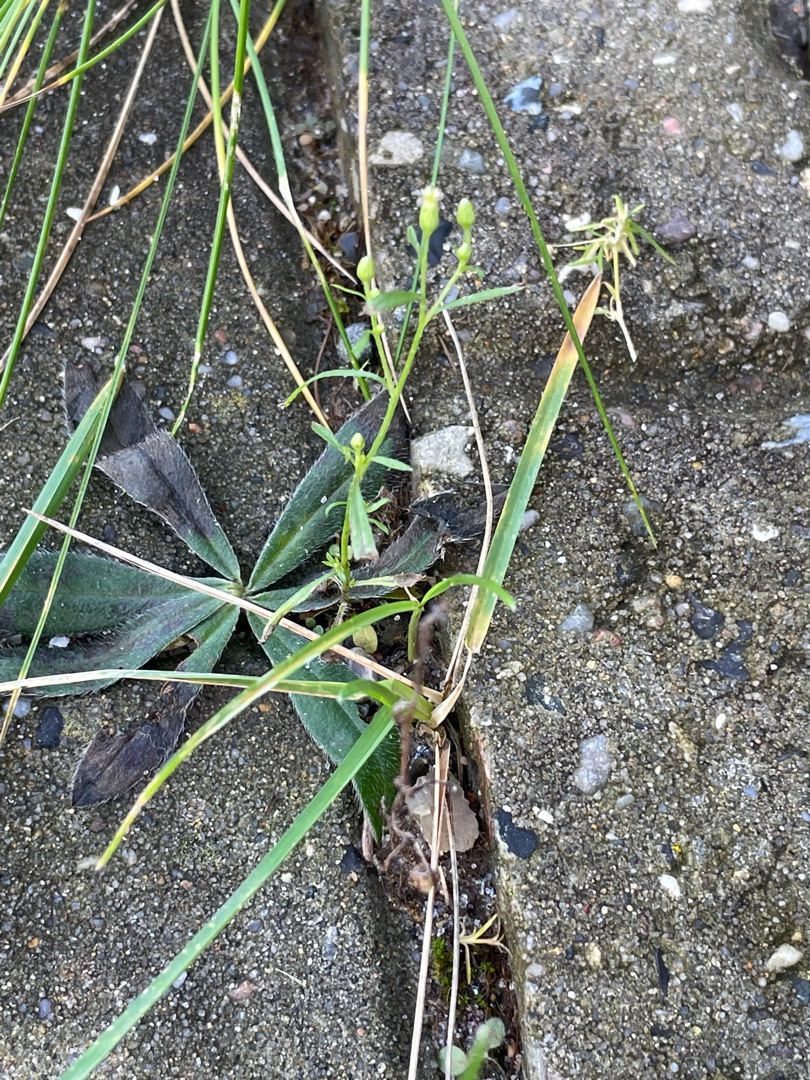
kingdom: Plantae
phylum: Tracheophyta
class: Magnoliopsida
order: Asterales
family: Asteraceae
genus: Erigeron
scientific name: Erigeron canadensis
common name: Kanadisk bakkestjerne
